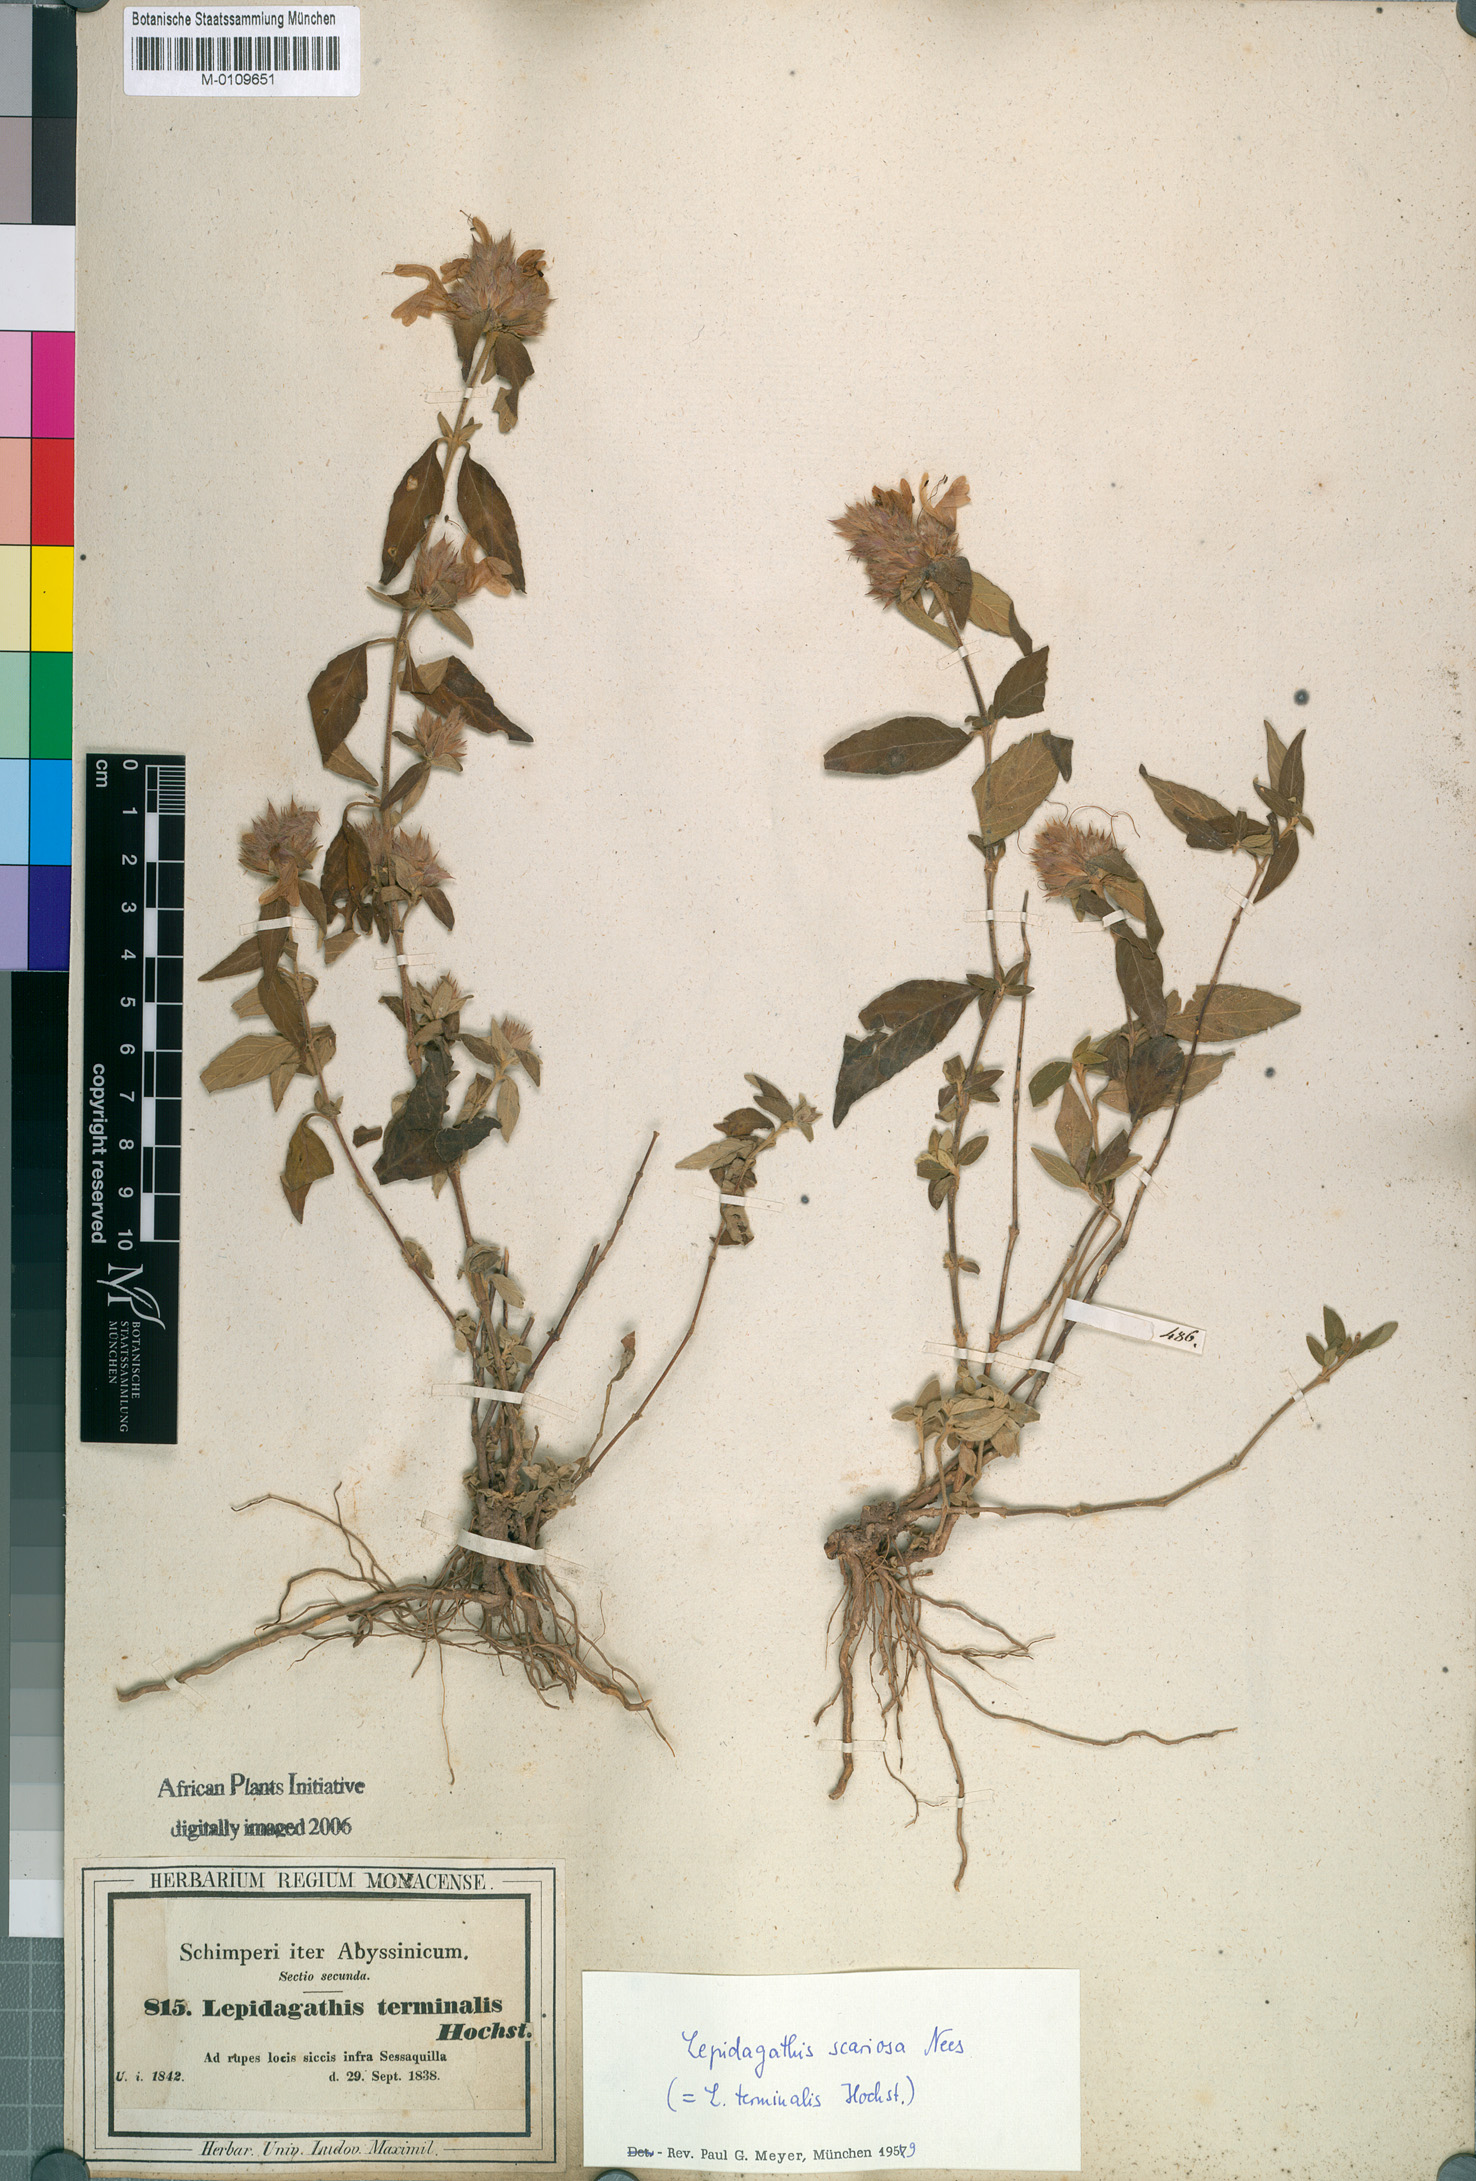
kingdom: Plantae
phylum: Tracheophyta
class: Magnoliopsida
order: Lamiales
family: Acanthaceae
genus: Lepidagathis
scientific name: Lepidagathis scariosa
